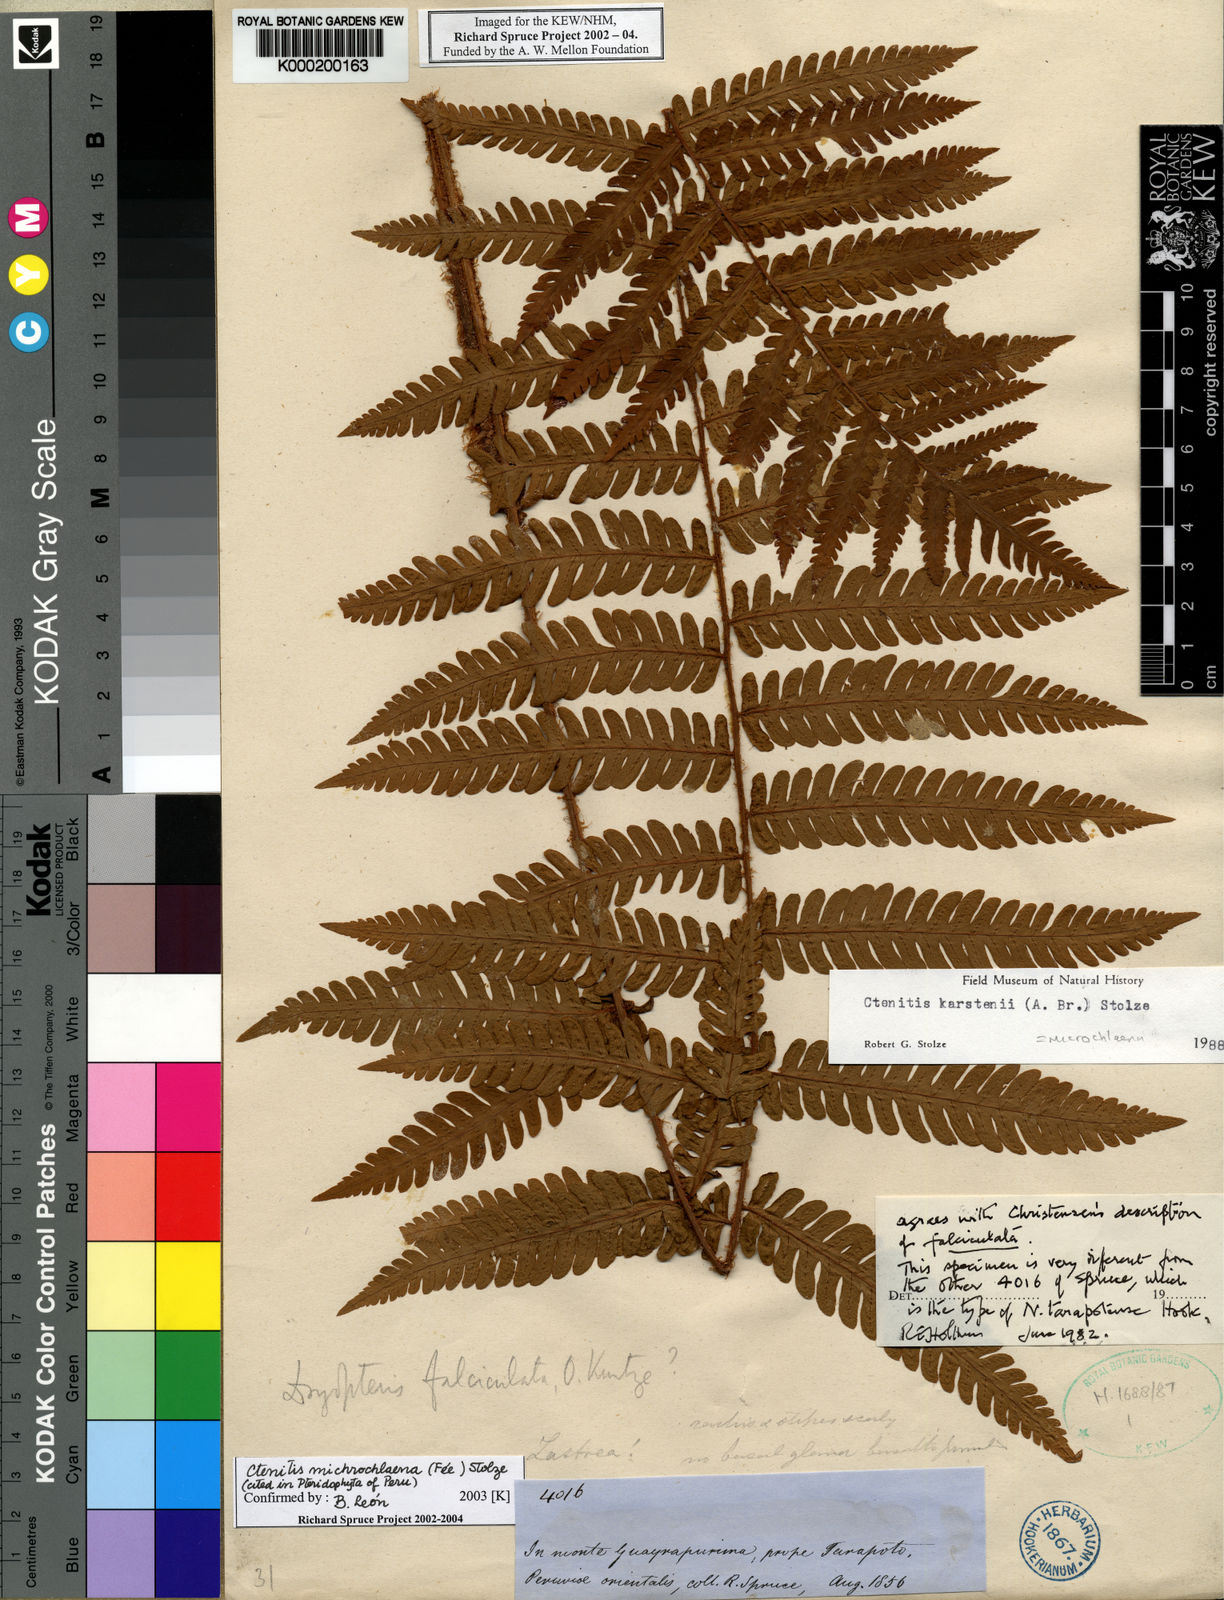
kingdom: Plantae
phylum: Tracheophyta
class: Polypodiopsida
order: Polypodiales
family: Dryopteridaceae
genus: Ctenitis
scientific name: Ctenitis microchlaena
